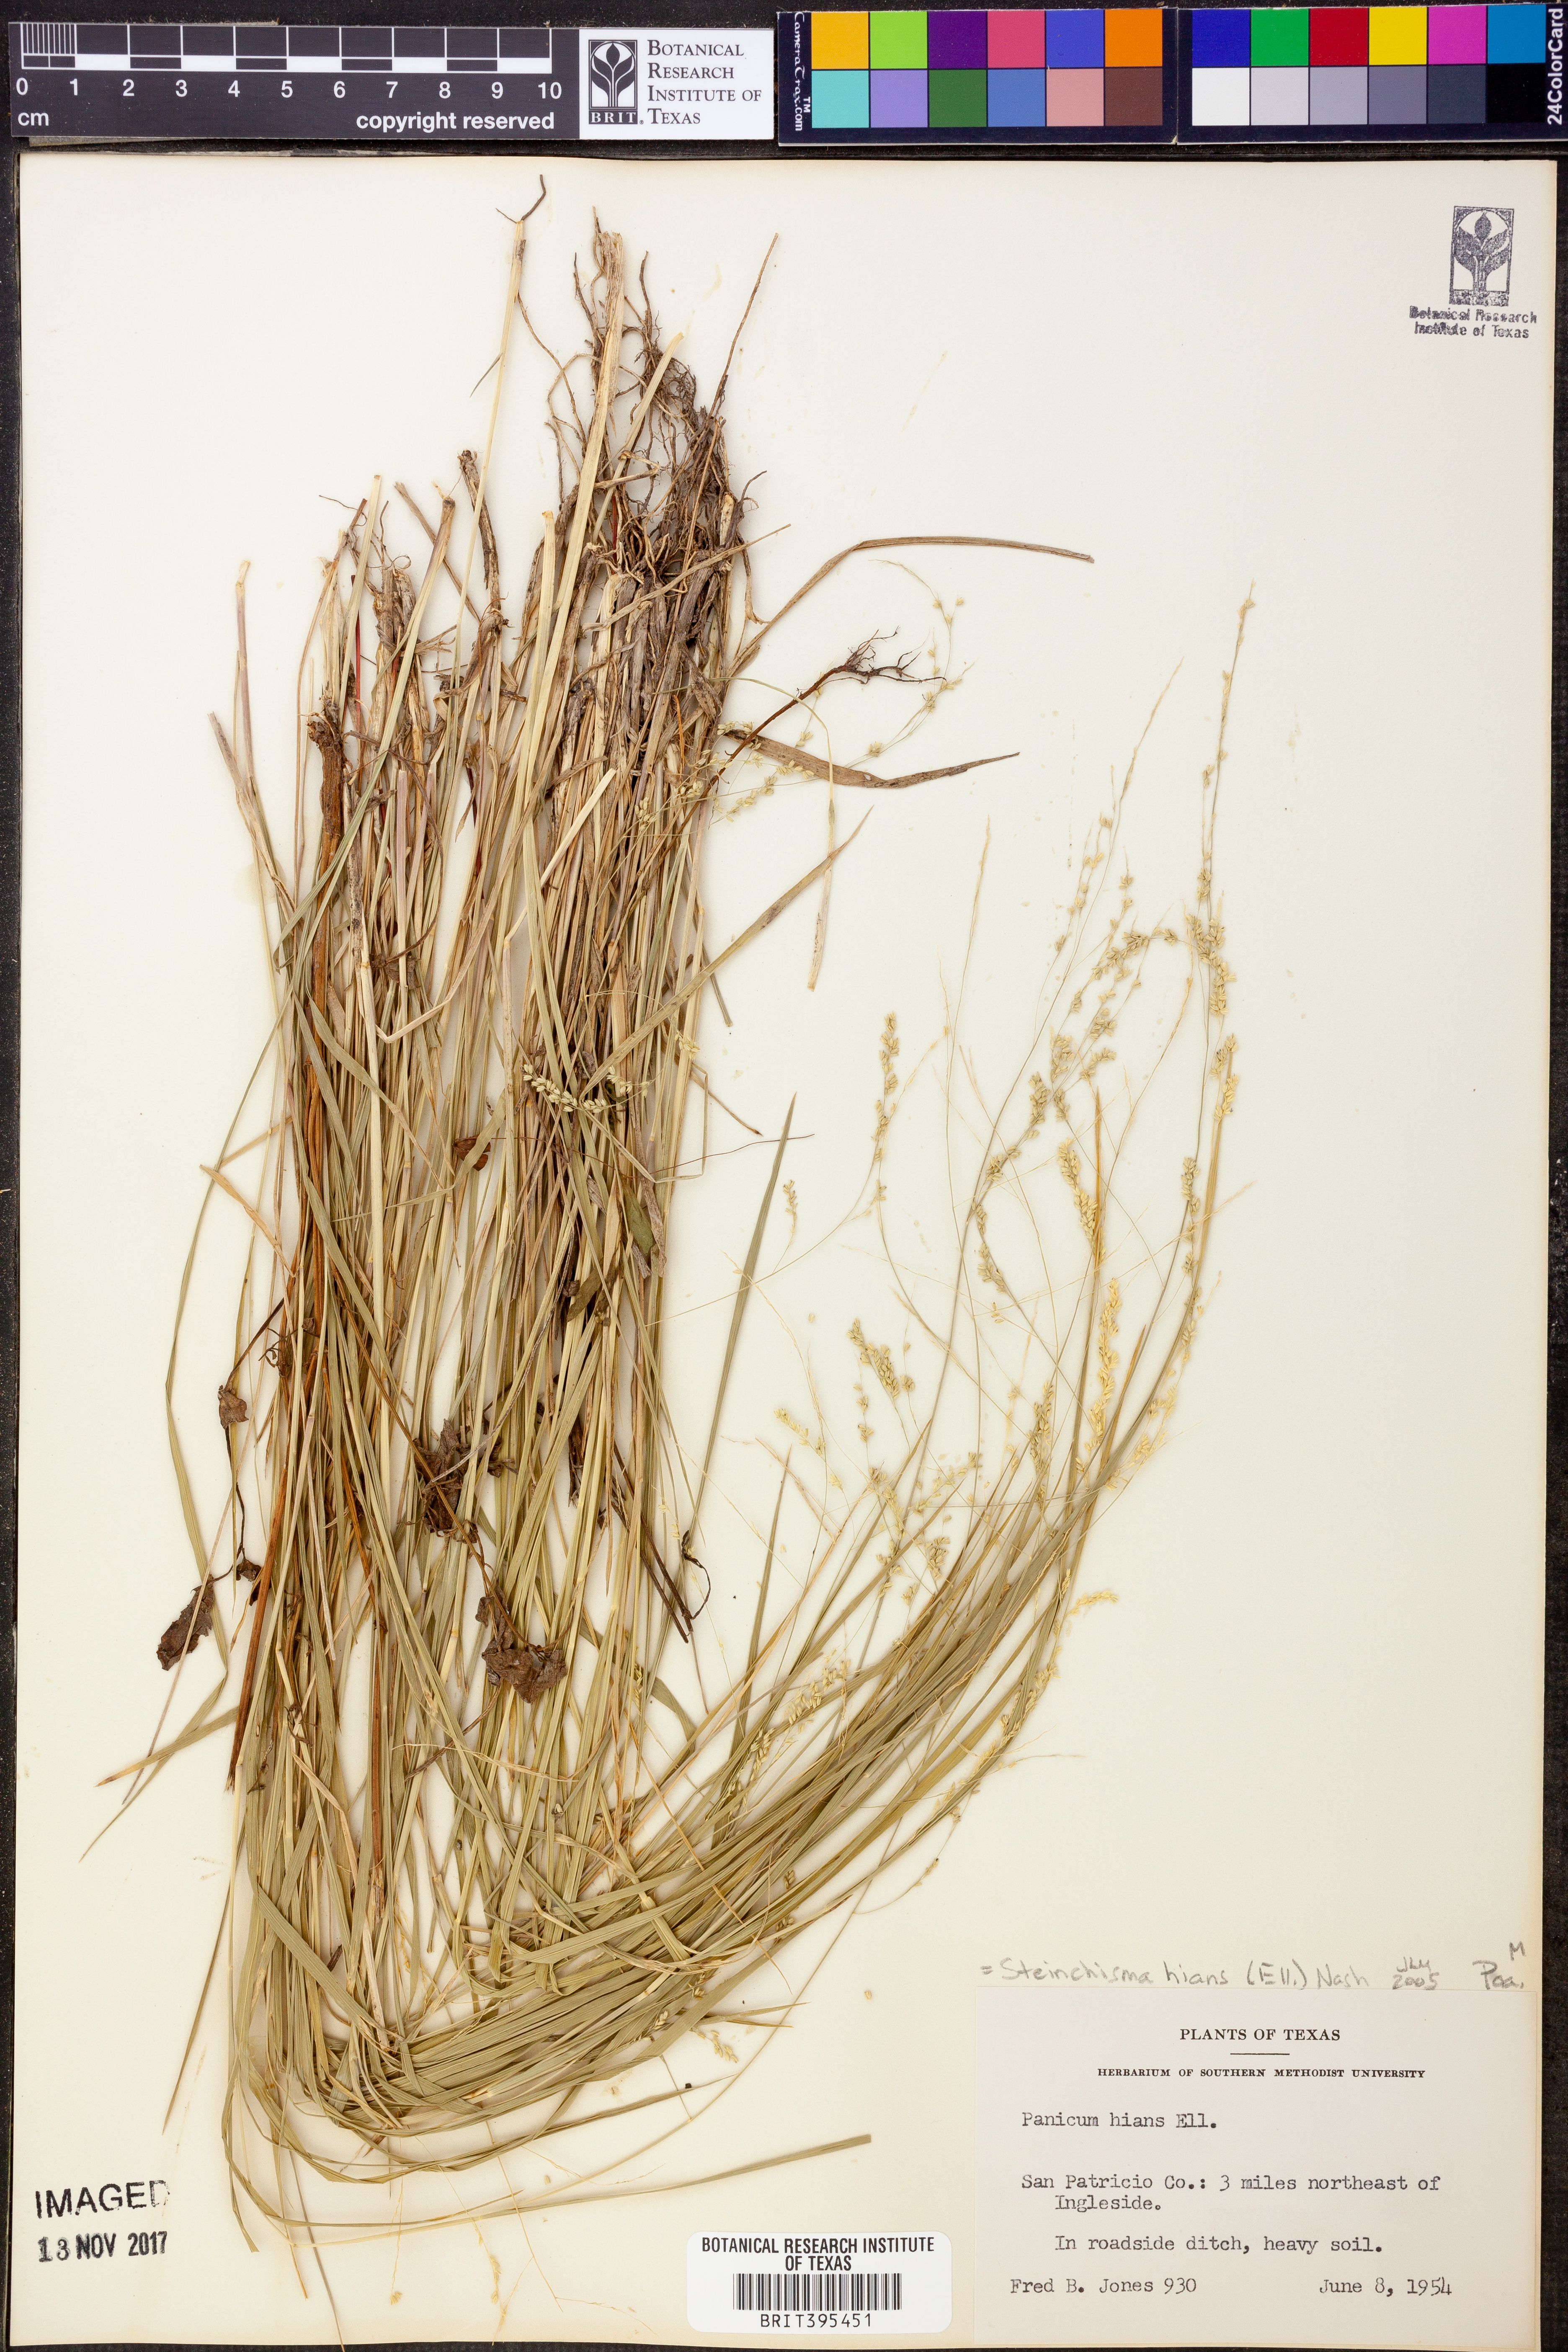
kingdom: Plantae
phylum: Tracheophyta
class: Liliopsida
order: Poales
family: Poaceae
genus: Steinchisma
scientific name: Steinchisma hians
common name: Gaping panic grass
